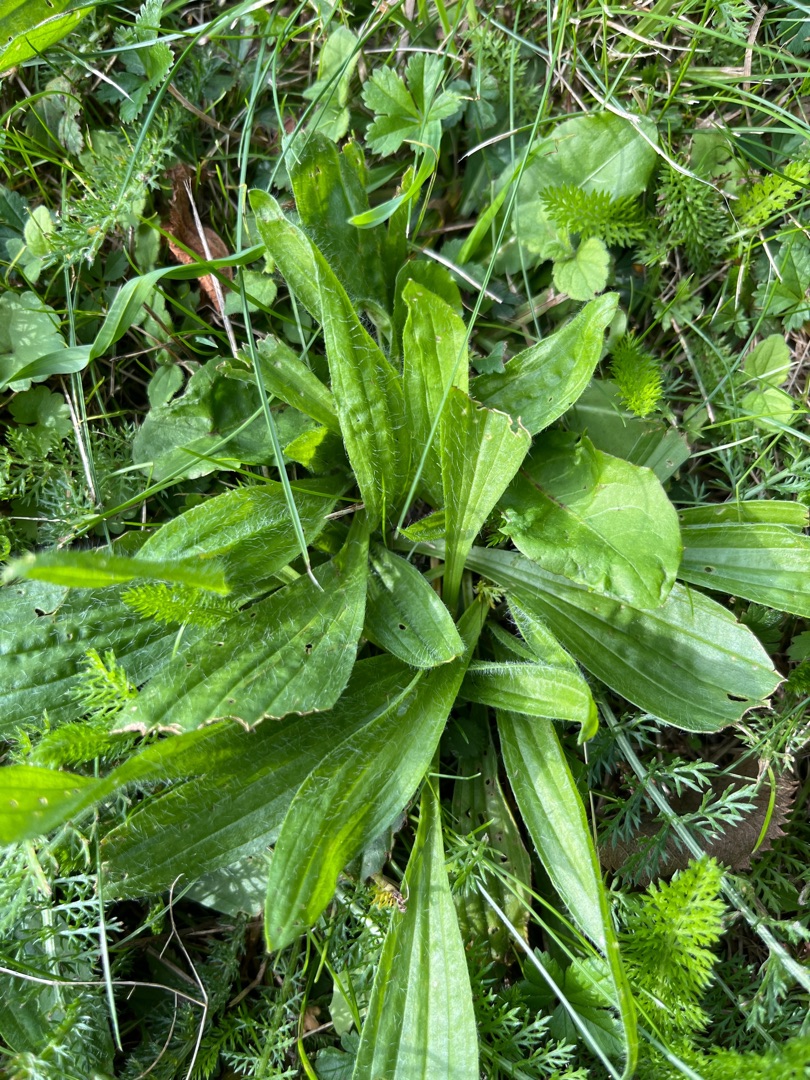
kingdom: Plantae
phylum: Tracheophyta
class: Magnoliopsida
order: Lamiales
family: Plantaginaceae
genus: Plantago
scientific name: Plantago lanceolata
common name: Lancet-vejbred
